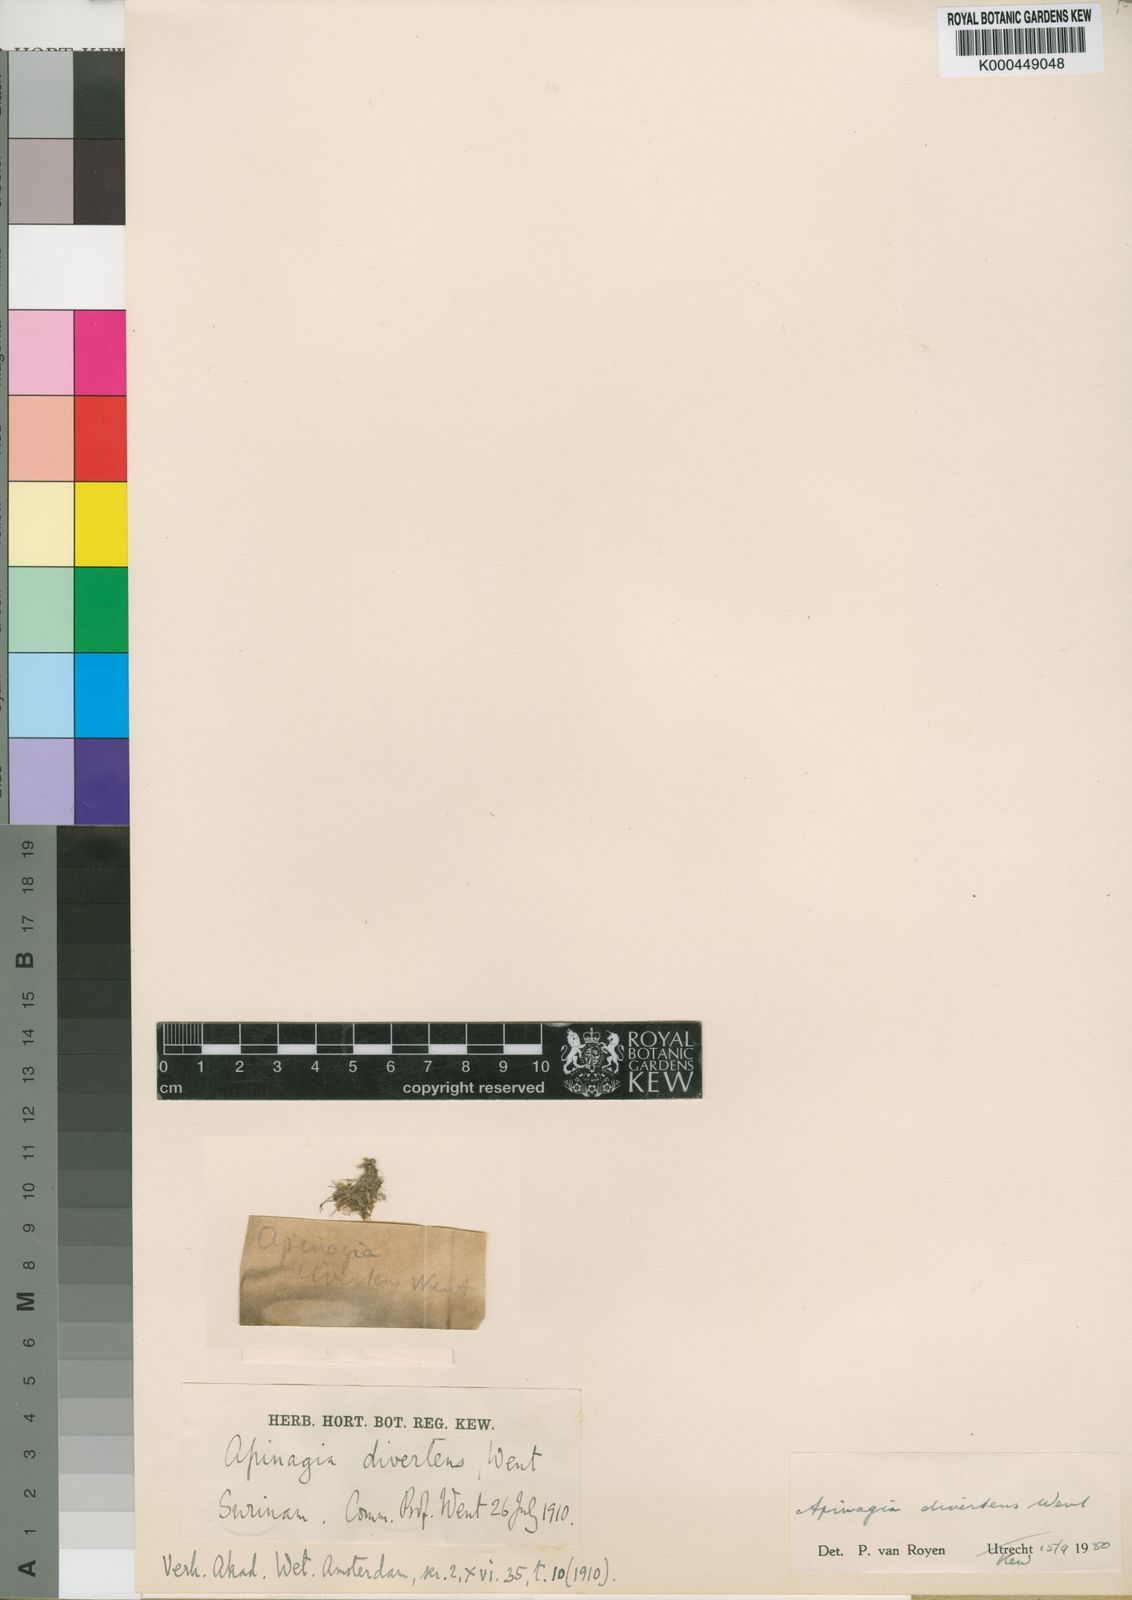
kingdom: Plantae
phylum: Tracheophyta
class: Magnoliopsida
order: Malpighiales
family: Podostemaceae
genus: Apinagia
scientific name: Apinagia
